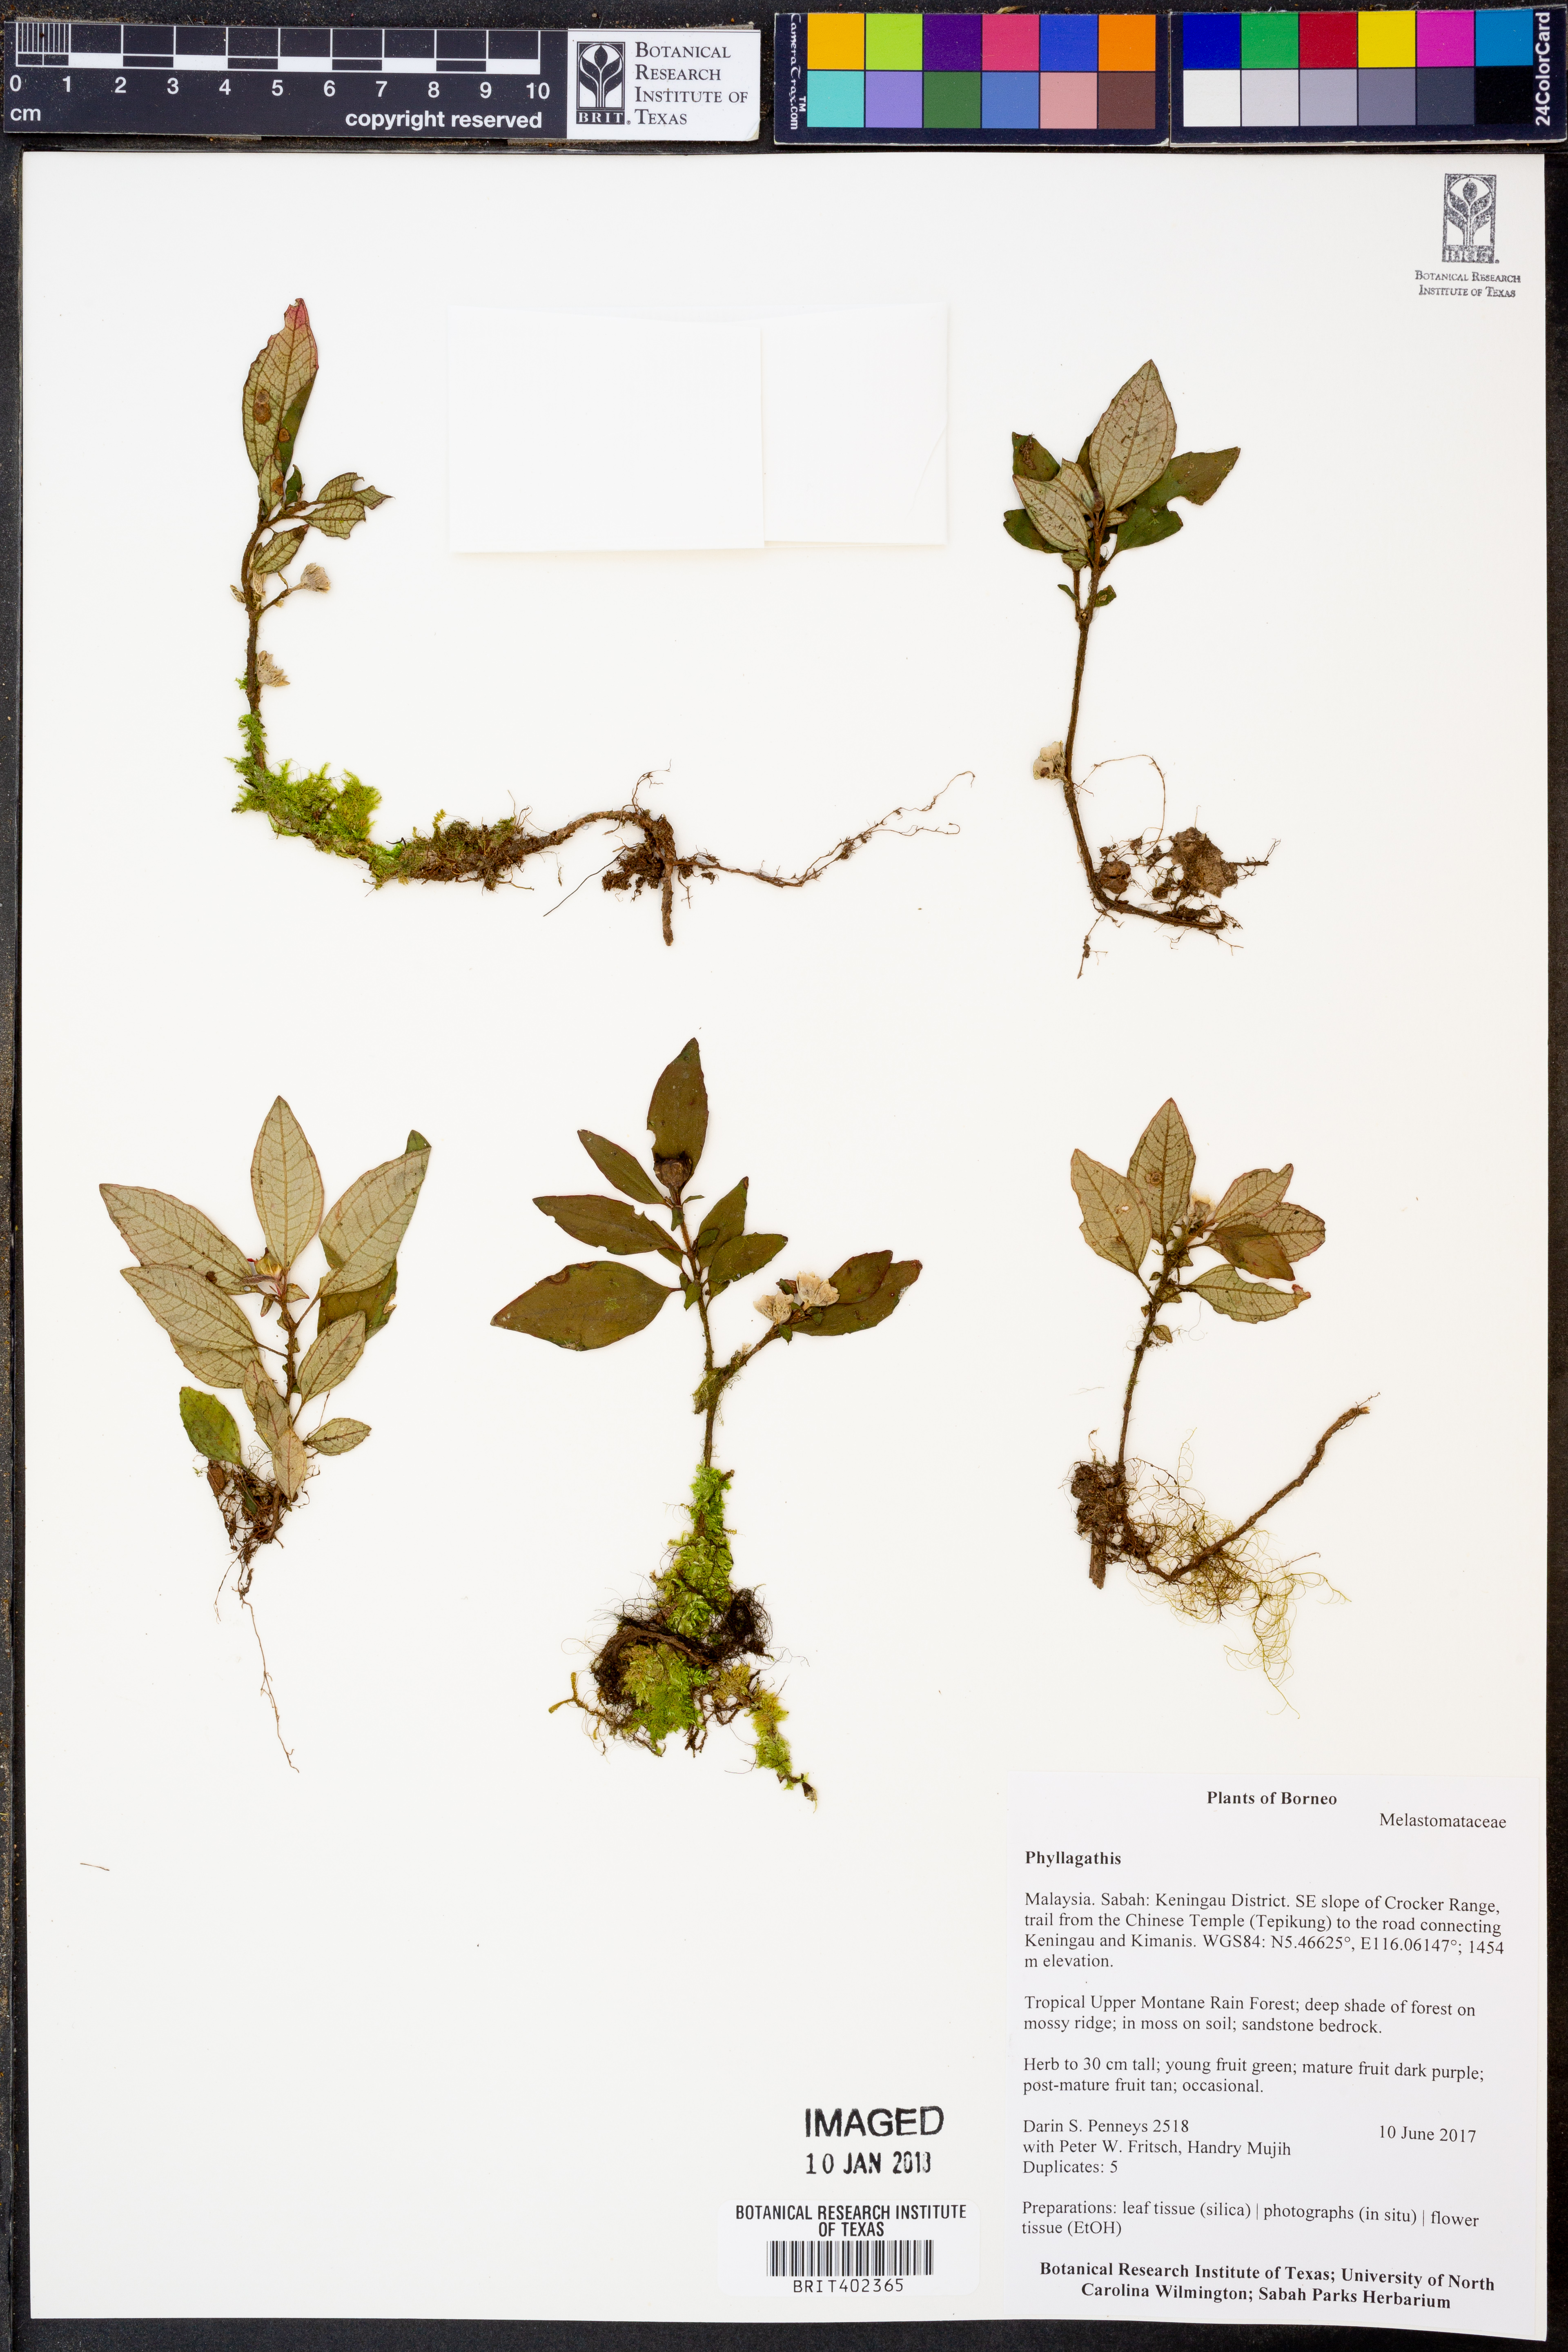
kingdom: Plantae
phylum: Tracheophyta
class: Magnoliopsida
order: Myrtales
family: Melastomataceae
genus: Phyllagathis
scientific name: Phyllagathis
